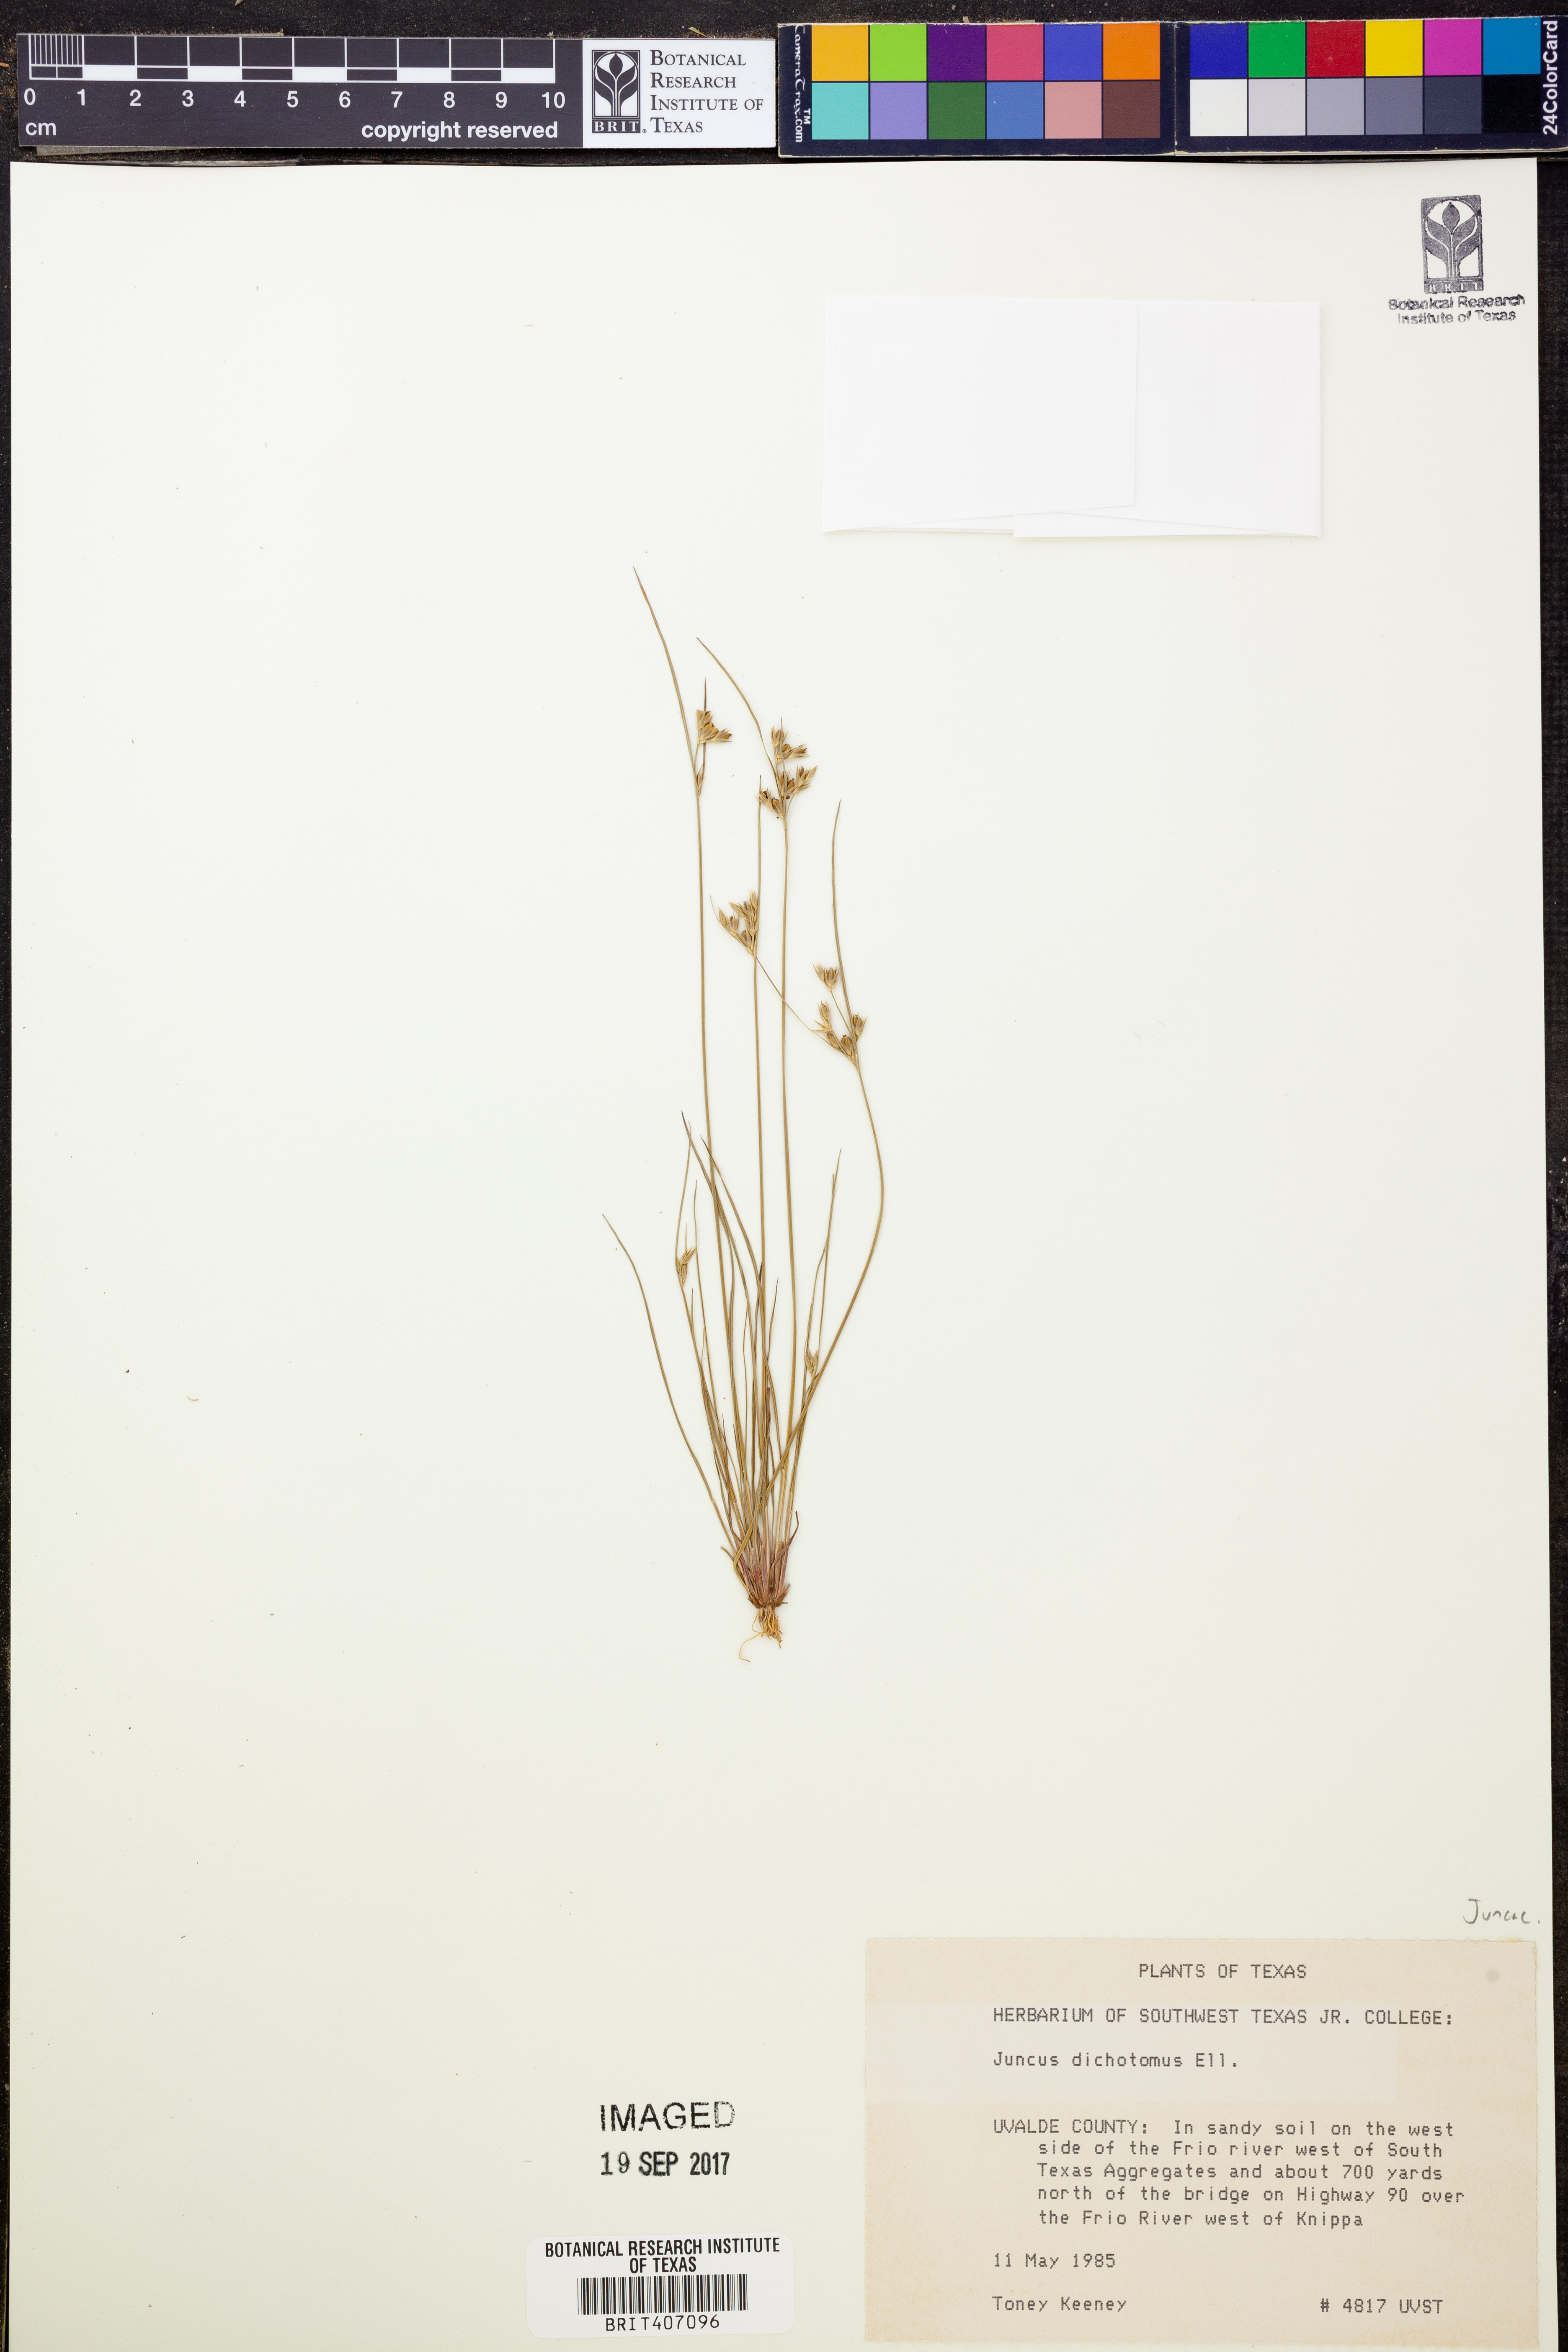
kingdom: Plantae
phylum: Tracheophyta
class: Liliopsida
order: Poales
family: Juncaceae
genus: Juncus
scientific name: Juncus dichotomus
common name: Forked rush
